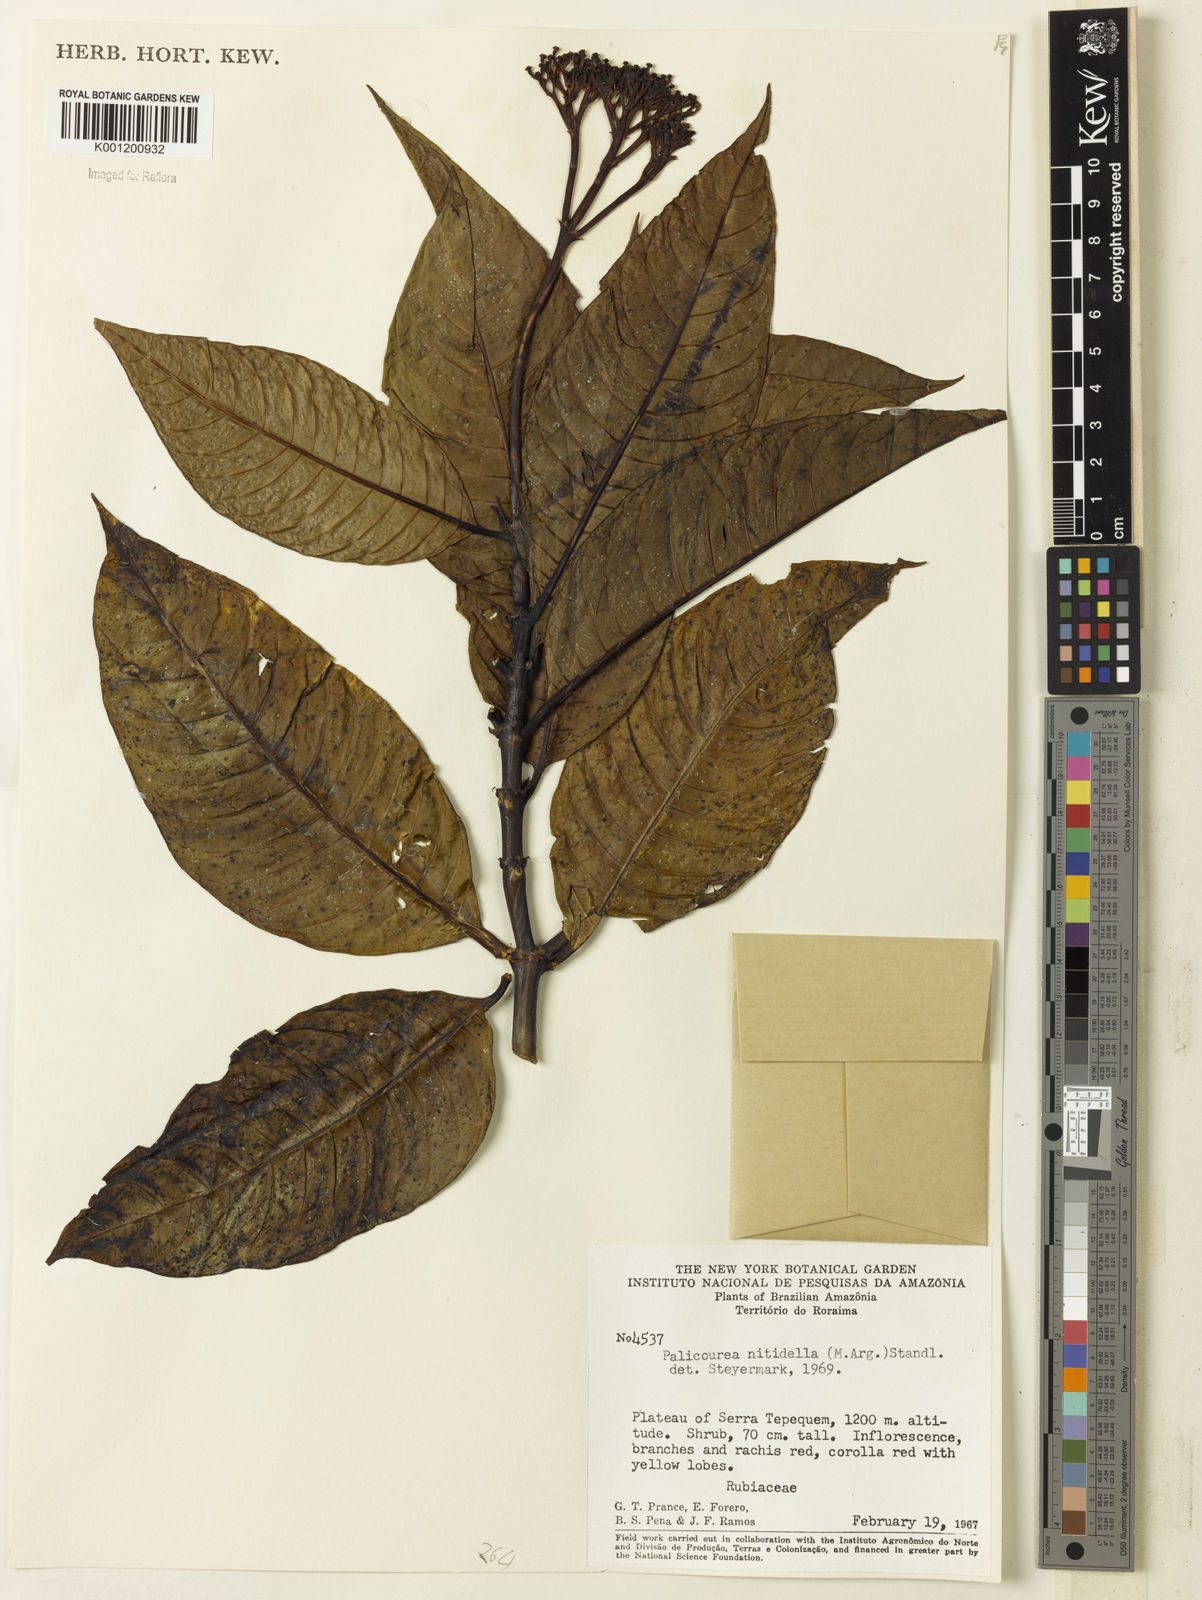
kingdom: Plantae
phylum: Tracheophyta
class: Magnoliopsida
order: Gentianales
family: Rubiaceae
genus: Palicourea
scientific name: Palicourea
